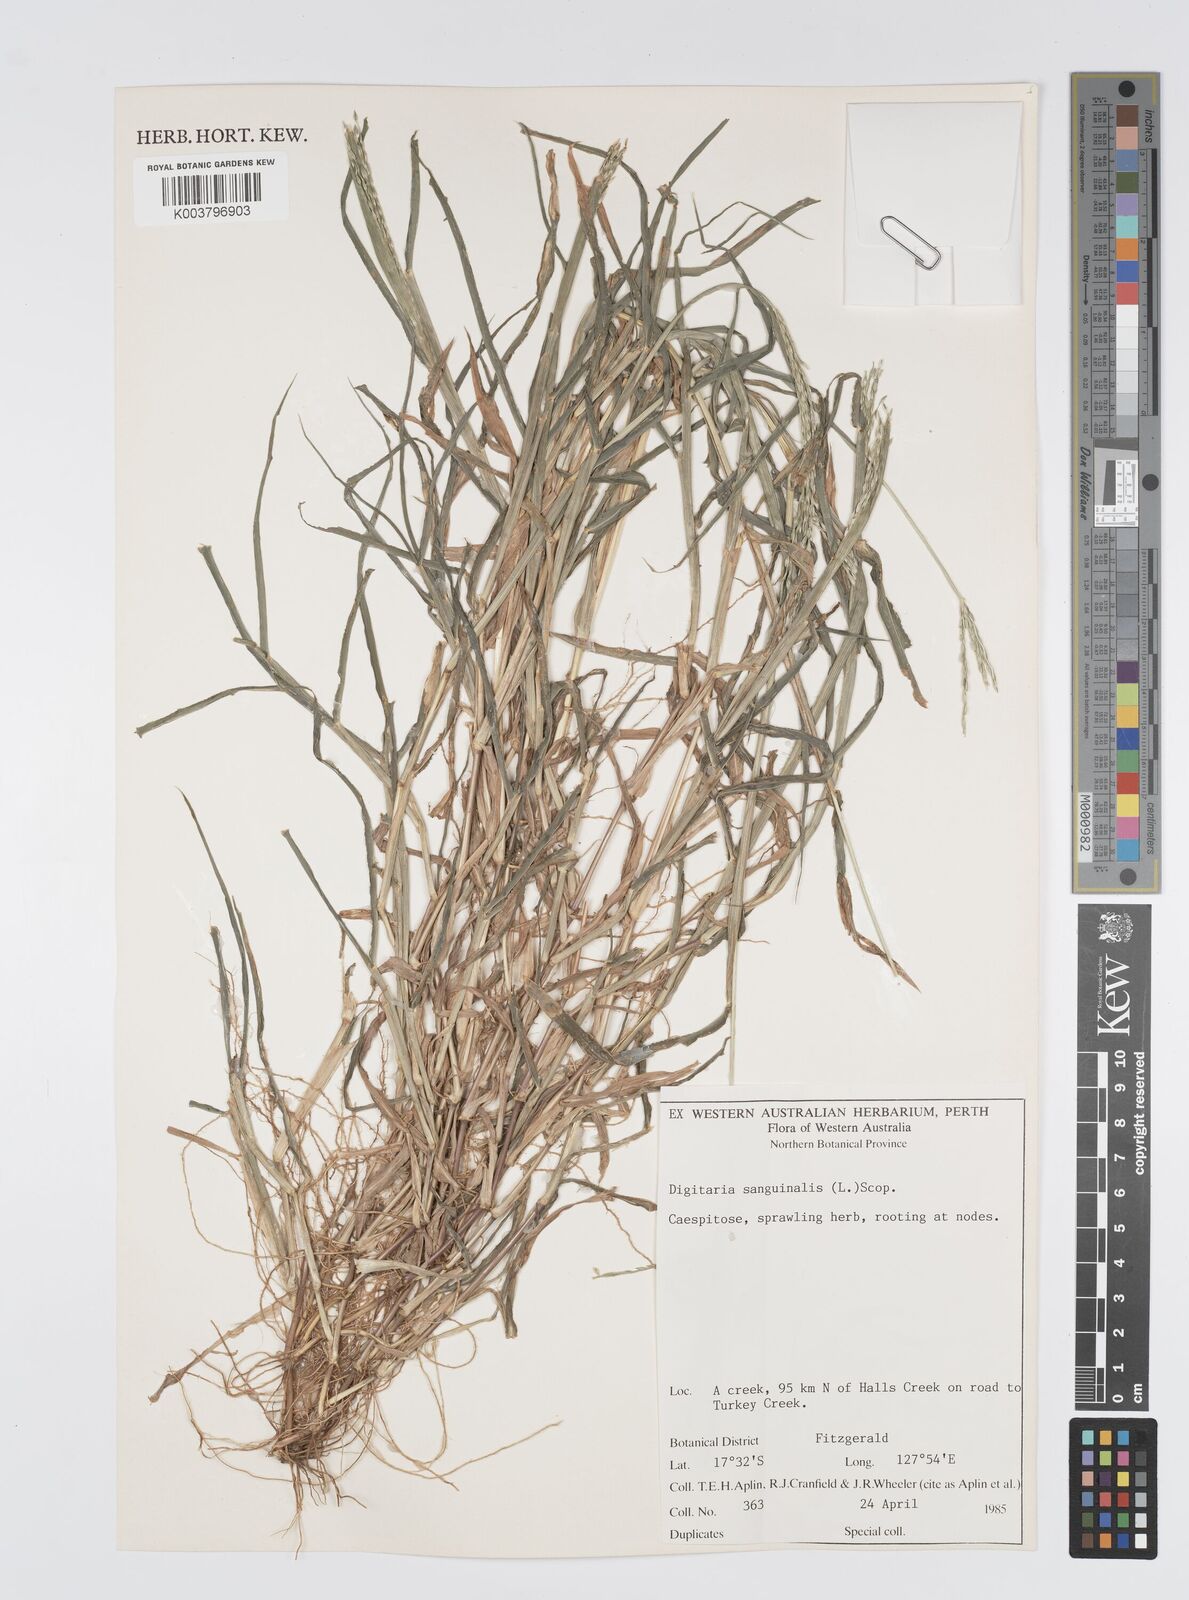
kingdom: Plantae
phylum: Tracheophyta
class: Liliopsida
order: Poales
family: Poaceae
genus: Digitaria
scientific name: Digitaria sanguinalis
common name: Hairy crabgrass
